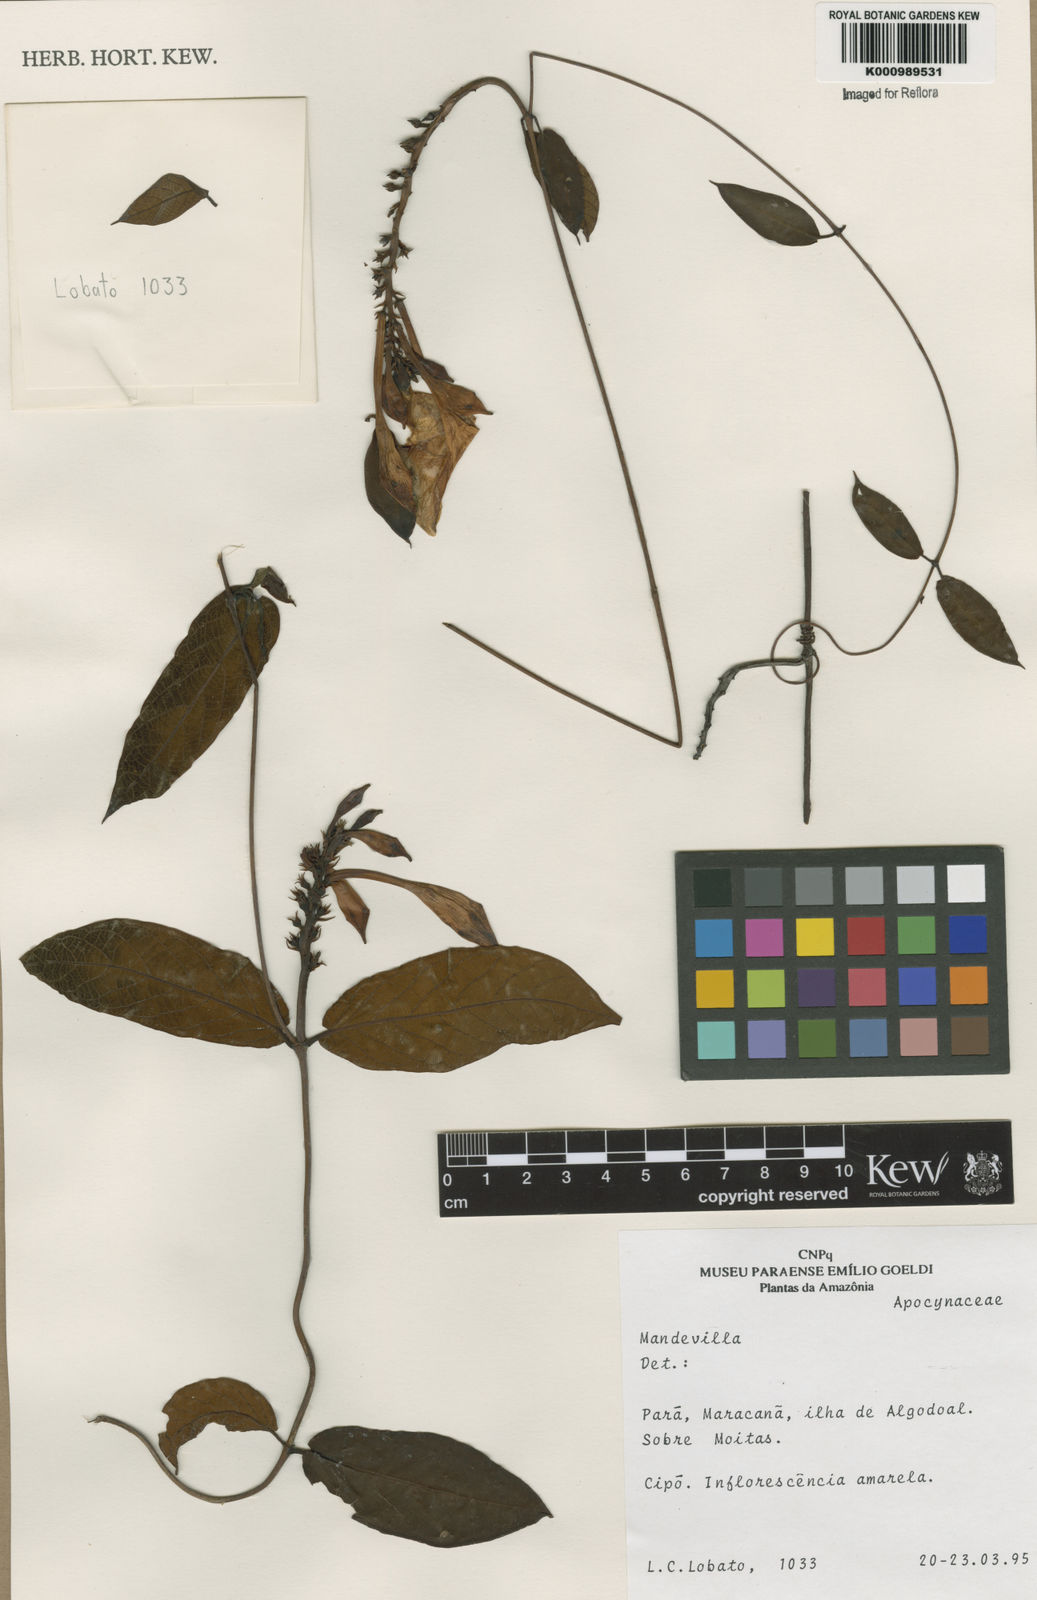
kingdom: Plantae
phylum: Tracheophyta
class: Magnoliopsida
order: Gentianales
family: Apocynaceae
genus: Mandevilla
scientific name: Mandevilla
